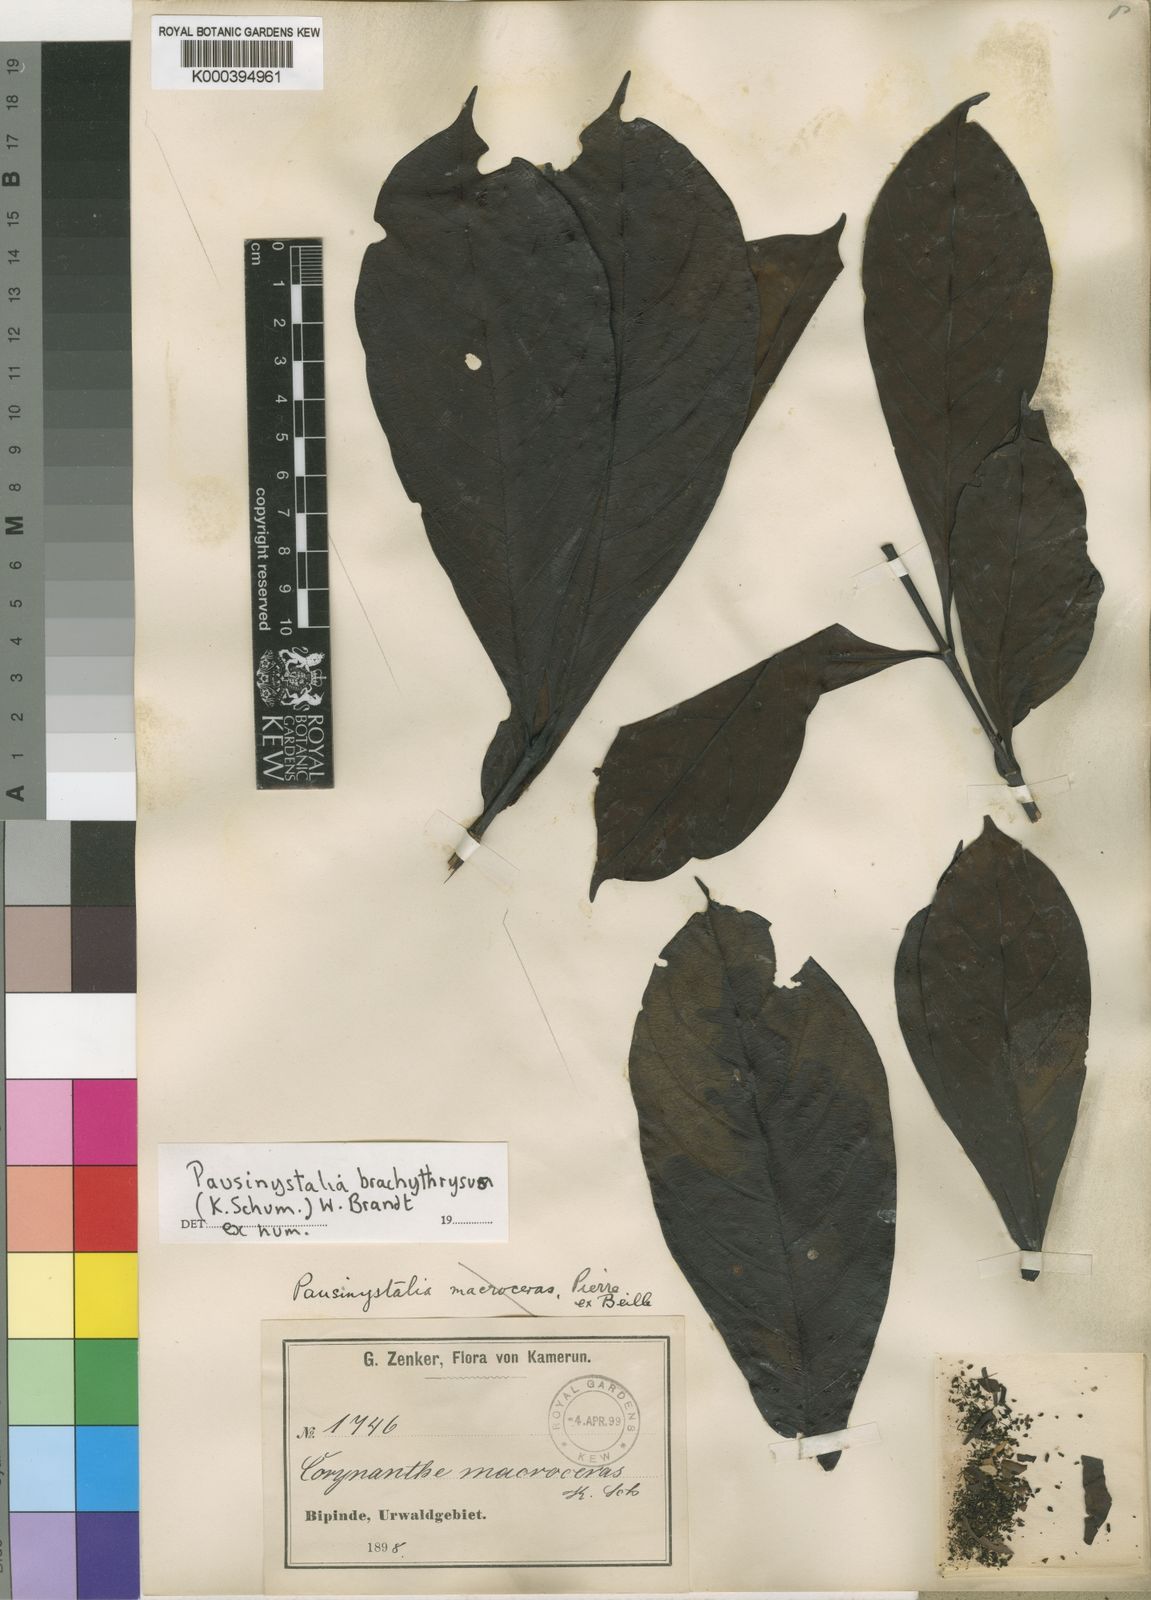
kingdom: Plantae
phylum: Tracheophyta
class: Magnoliopsida
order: Gentianales
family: Rubiaceae
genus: Pausinystalia
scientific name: Pausinystalia
